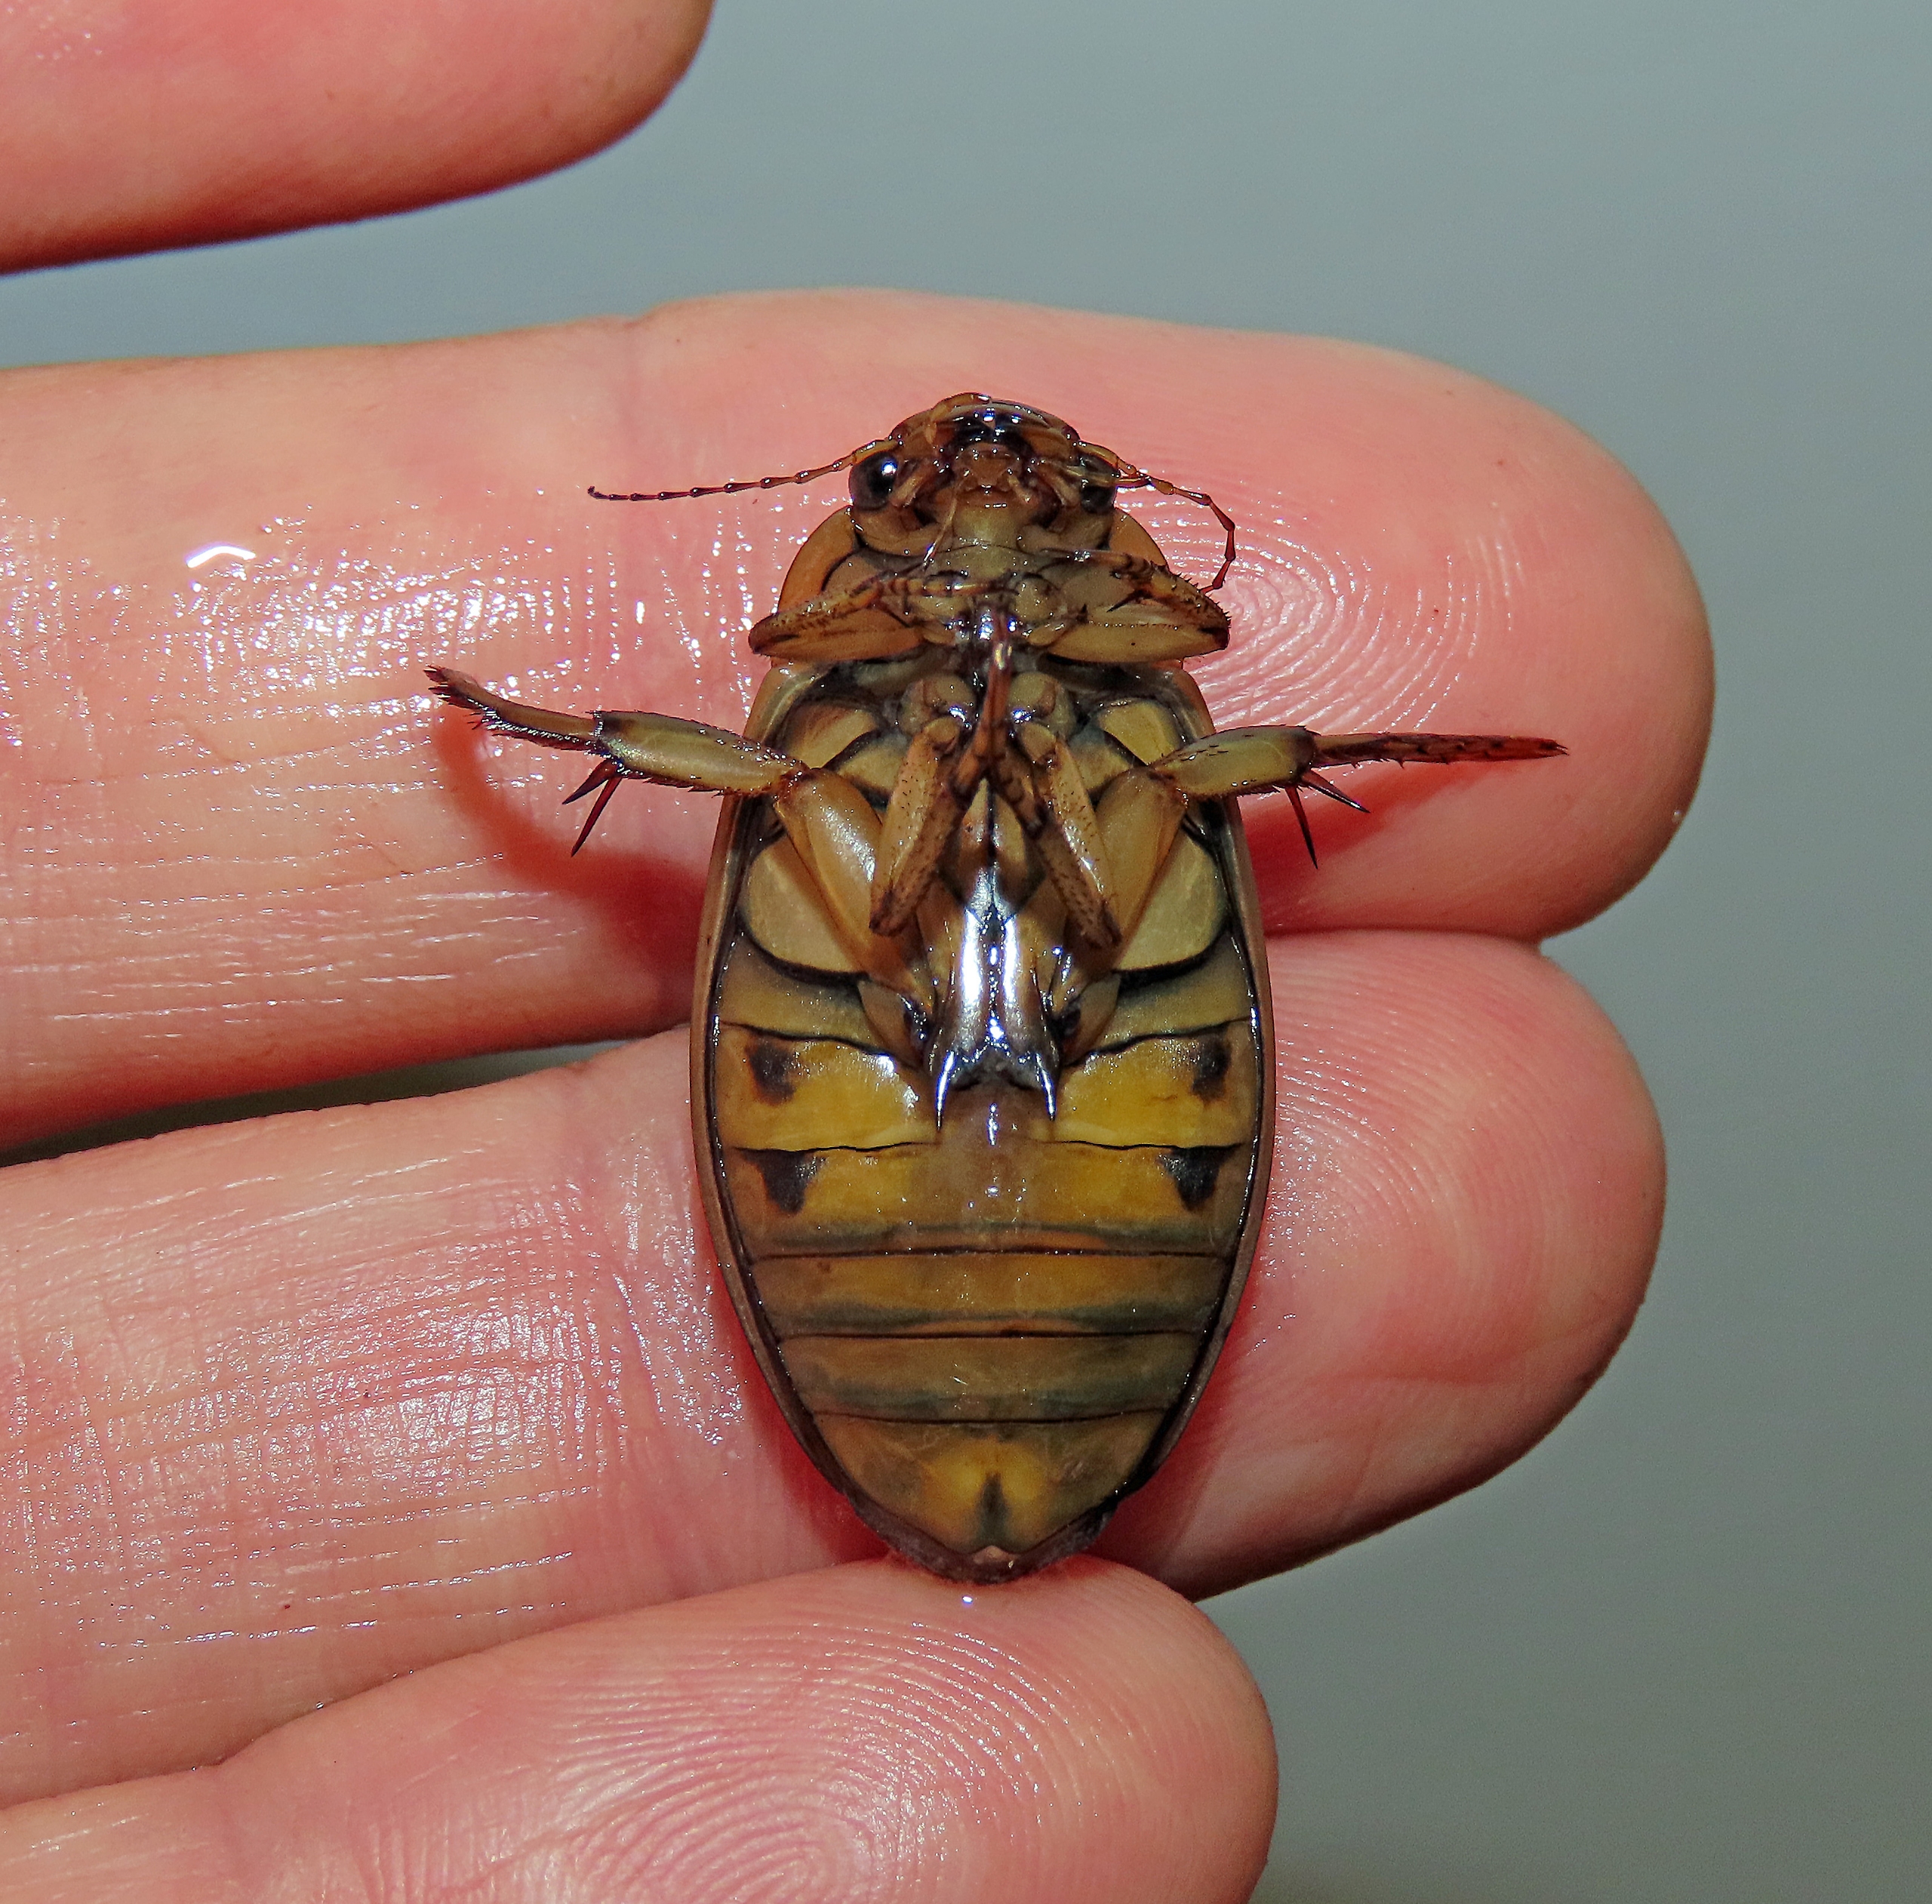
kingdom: Animalia
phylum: Arthropoda
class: Insecta
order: Coleoptera
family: Dytiscidae
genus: Dytiscus
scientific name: Dytiscus lapponicus
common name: Hedevandkalv
